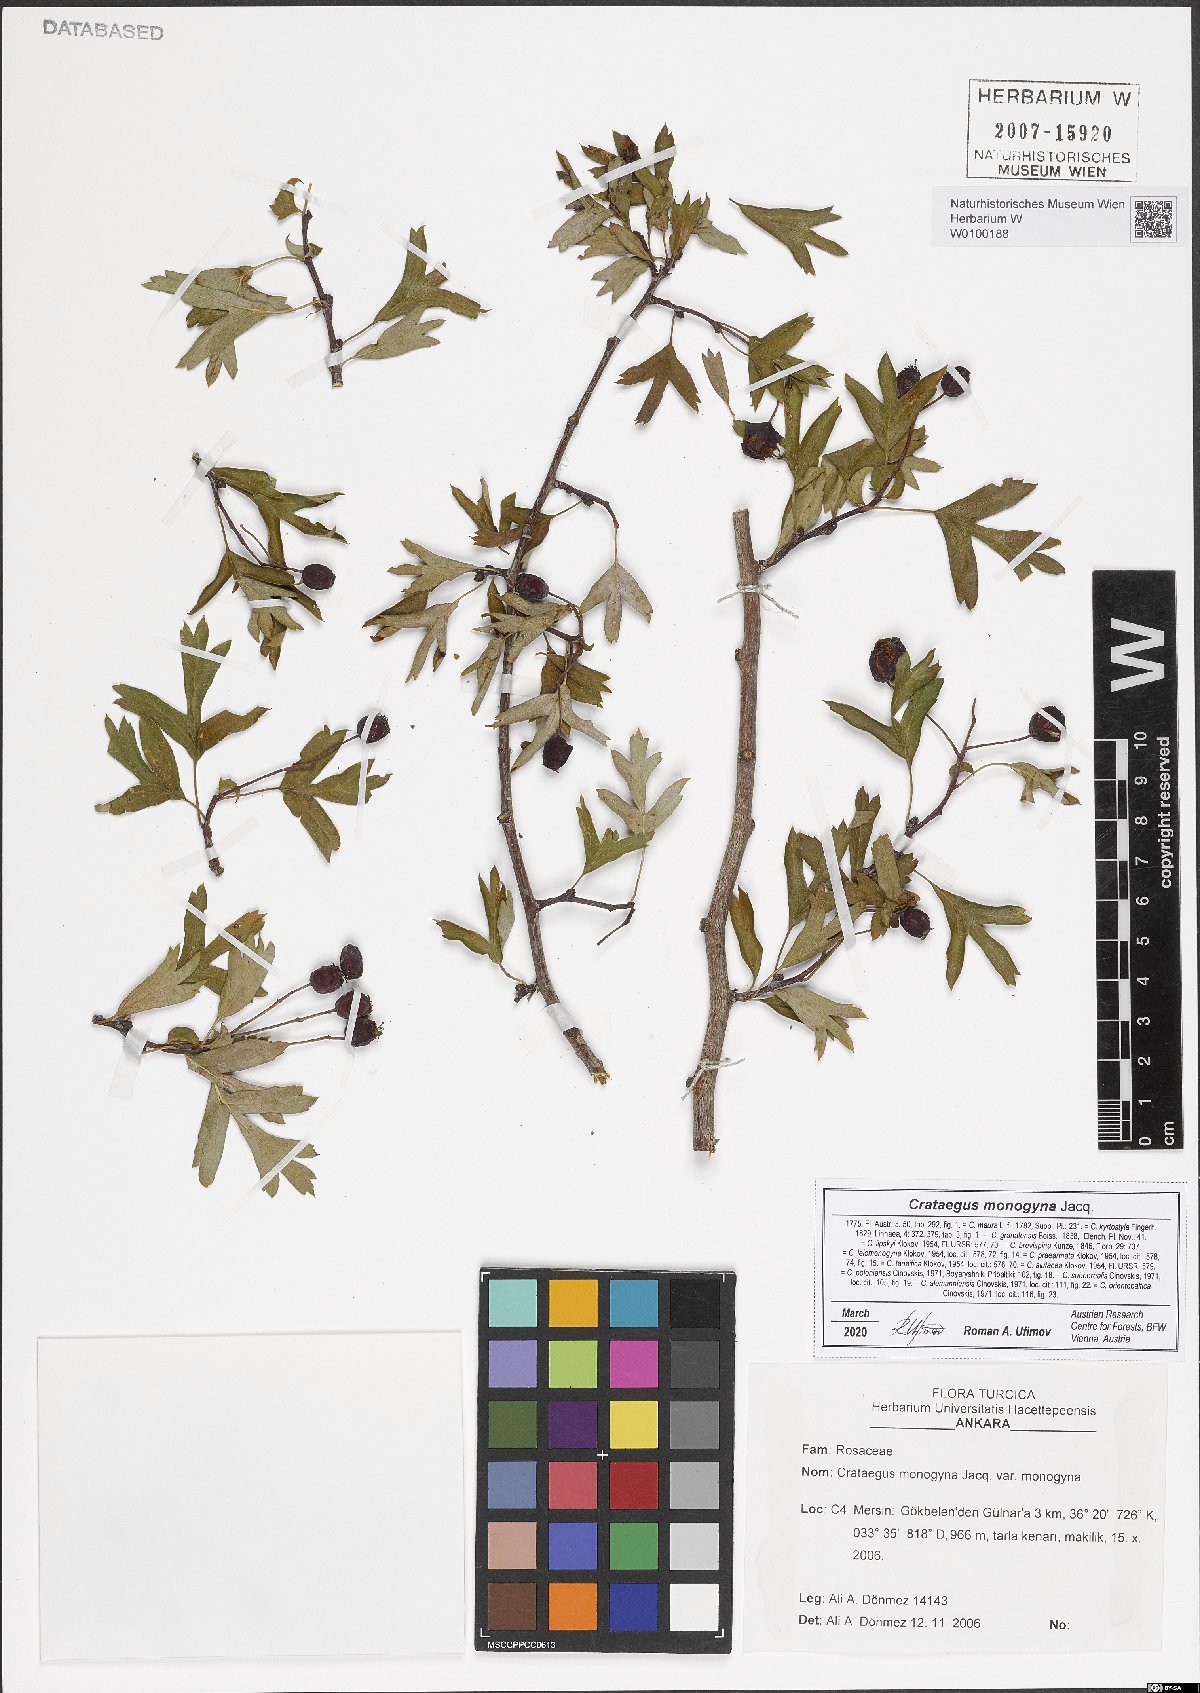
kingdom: Plantae
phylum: Tracheophyta
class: Magnoliopsida
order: Rosales
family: Rosaceae
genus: Crataegus
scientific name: Crataegus monogyna
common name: Hawthorn
